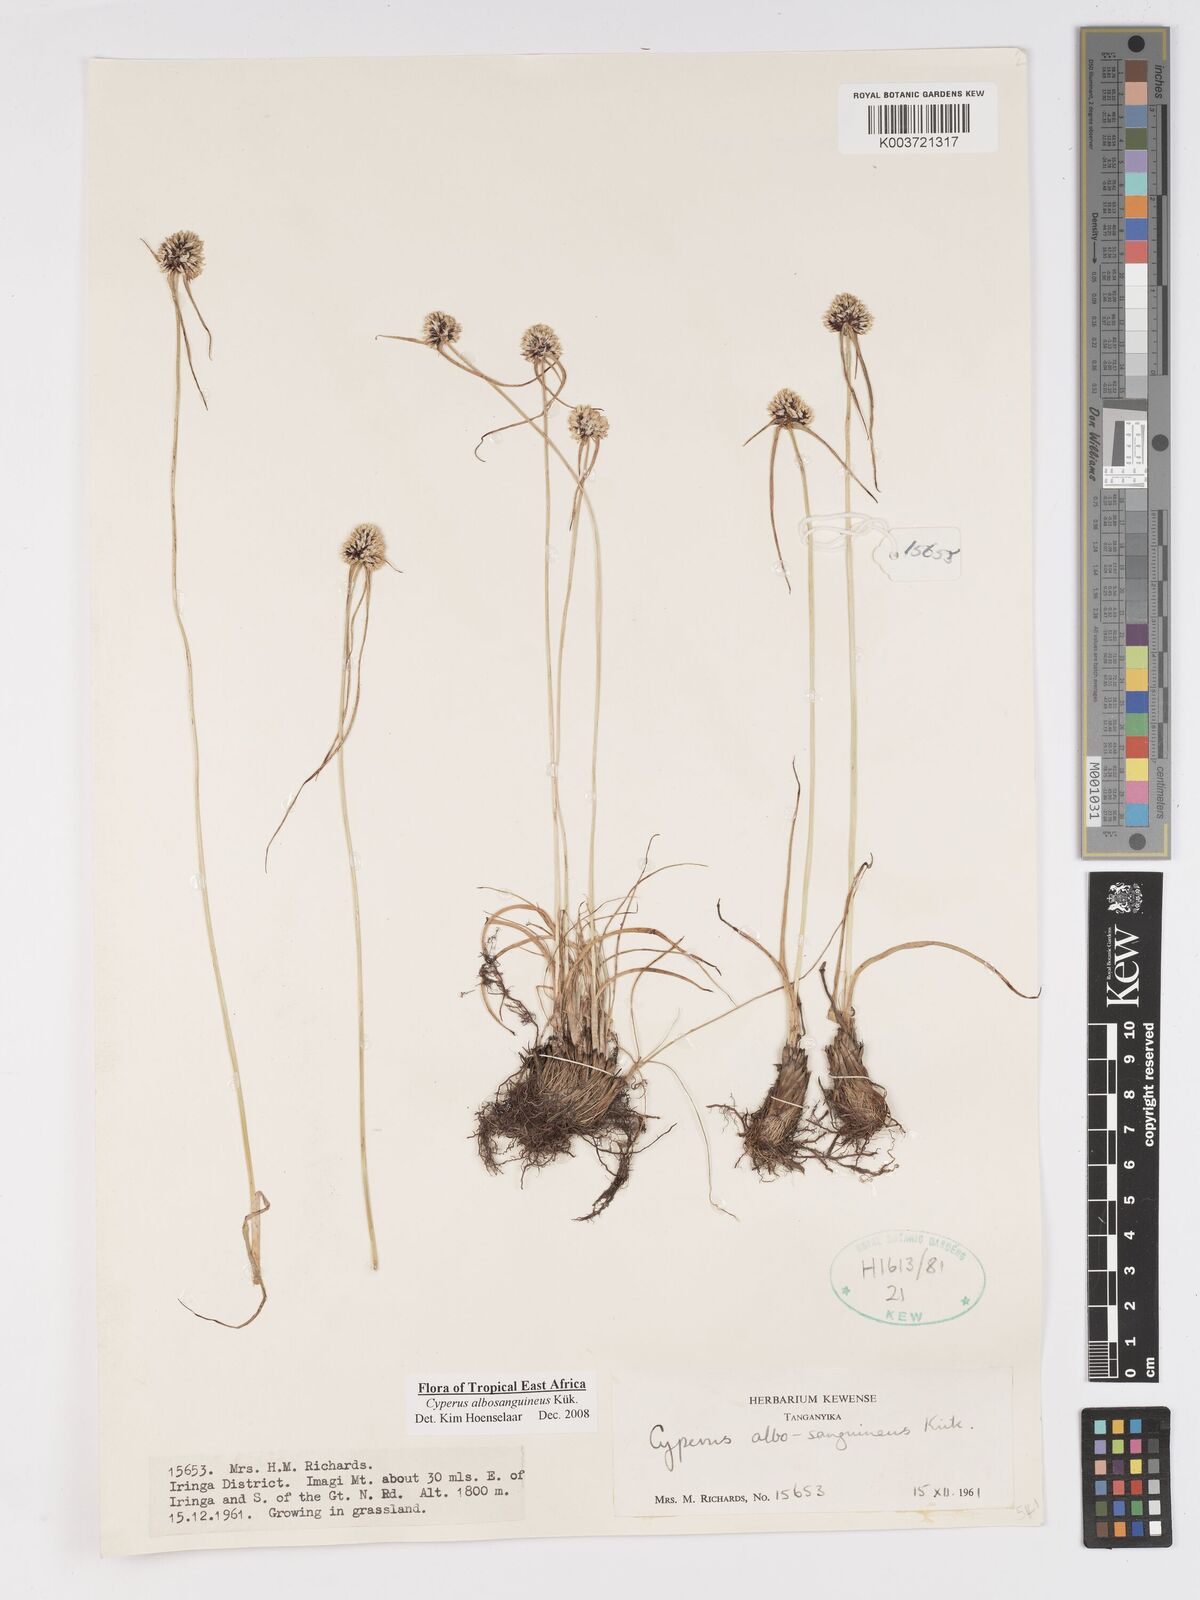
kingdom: Plantae
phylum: Tracheophyta
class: Liliopsida
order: Poales
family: Cyperaceae
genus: Cyperus
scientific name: Cyperus albosanguineus
